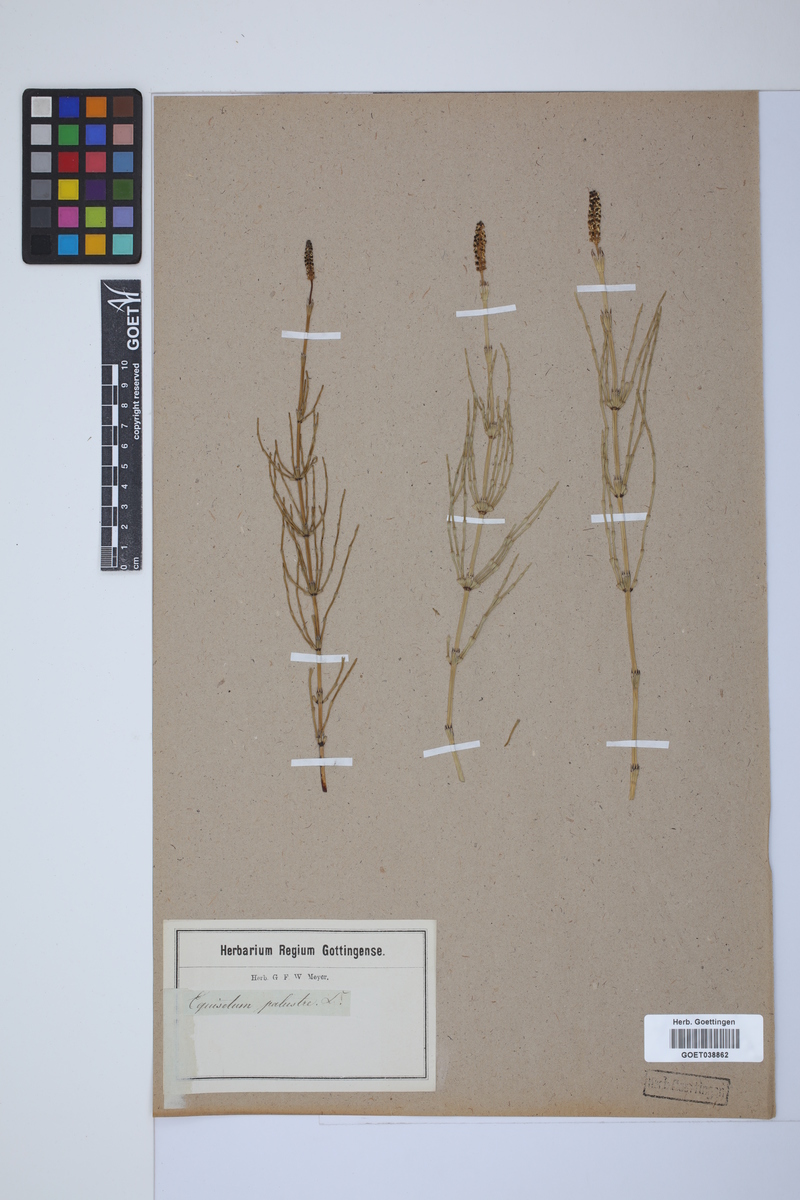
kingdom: Plantae
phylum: Tracheophyta
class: Polypodiopsida
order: Equisetales
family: Equisetaceae
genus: Equisetum
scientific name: Equisetum palustre
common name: Marsh horsetail
